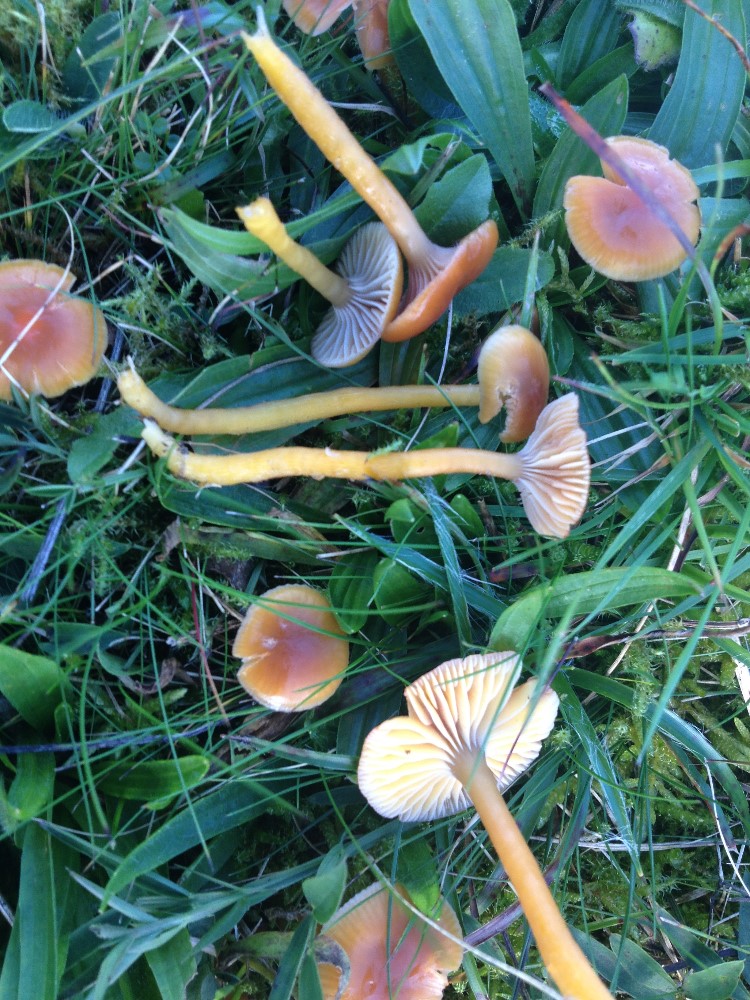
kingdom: Fungi
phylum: Basidiomycota
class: Agaricomycetes
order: Agaricales
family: Hygrophoraceae
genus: Gliophorus
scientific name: Gliophorus laetus
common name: brusk-vokshat
